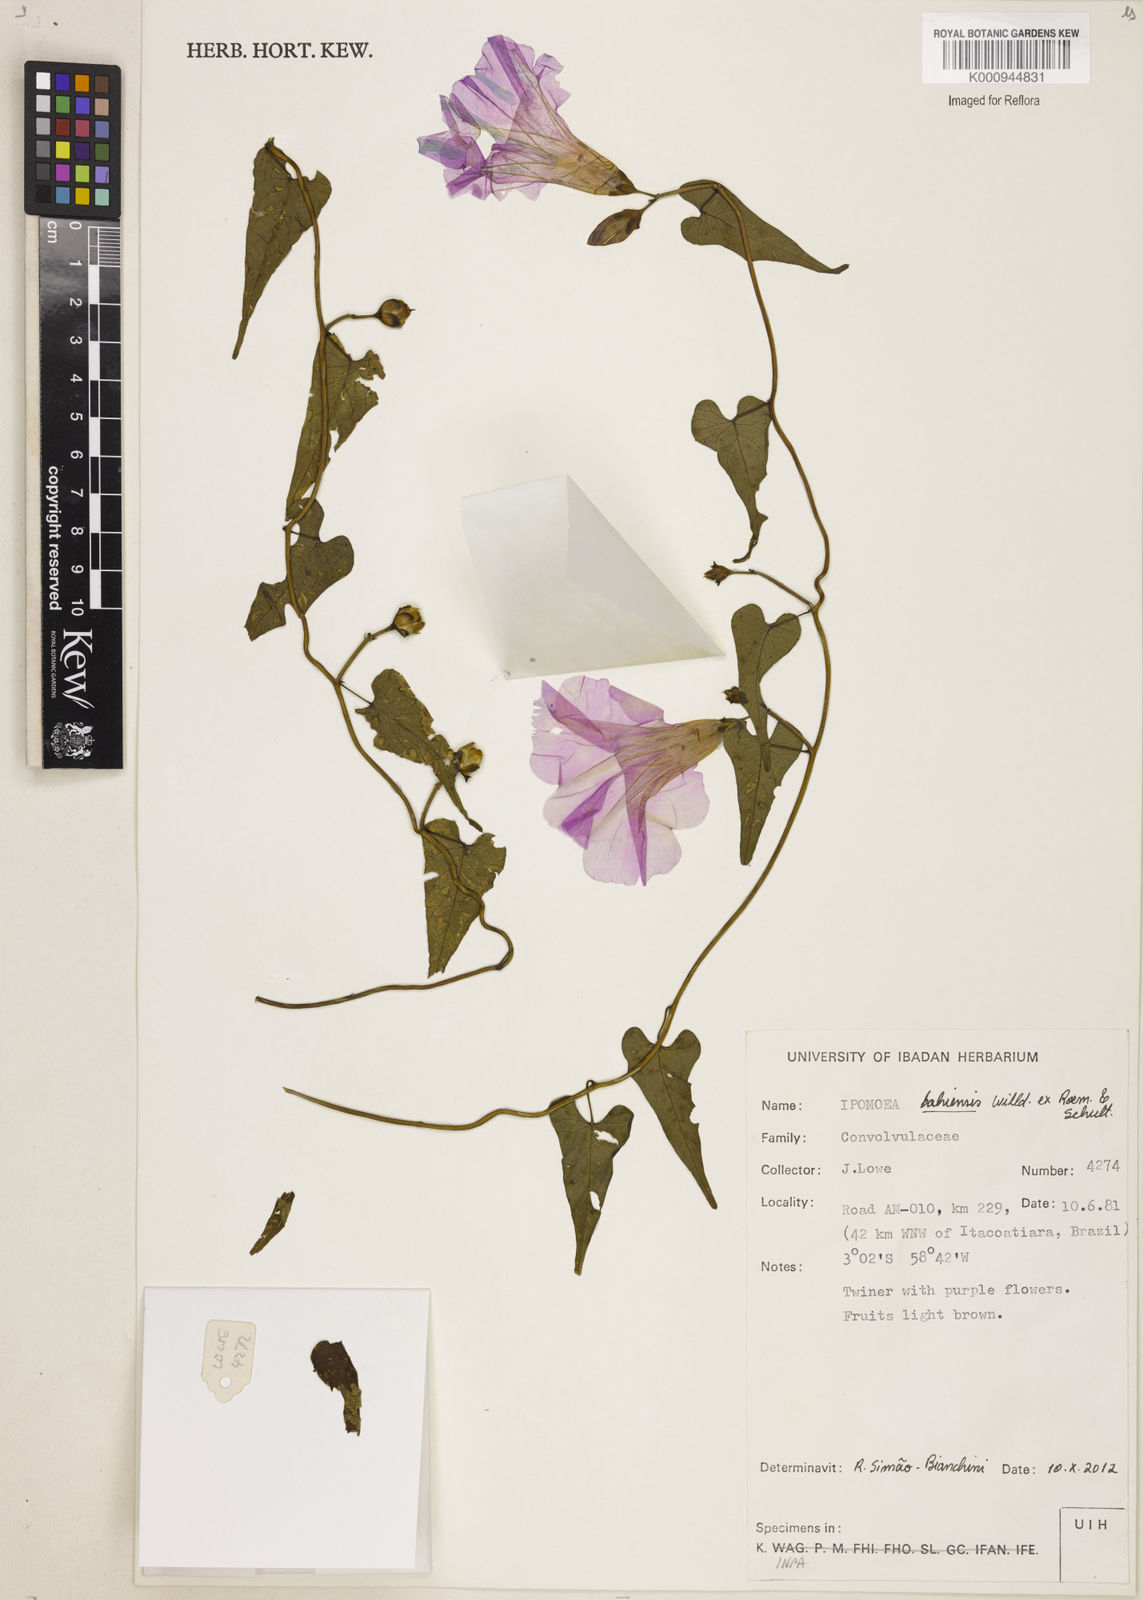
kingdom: Plantae
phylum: Tracheophyta
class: Magnoliopsida
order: Solanales
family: Convolvulaceae
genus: Ipomoea
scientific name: Ipomoea
